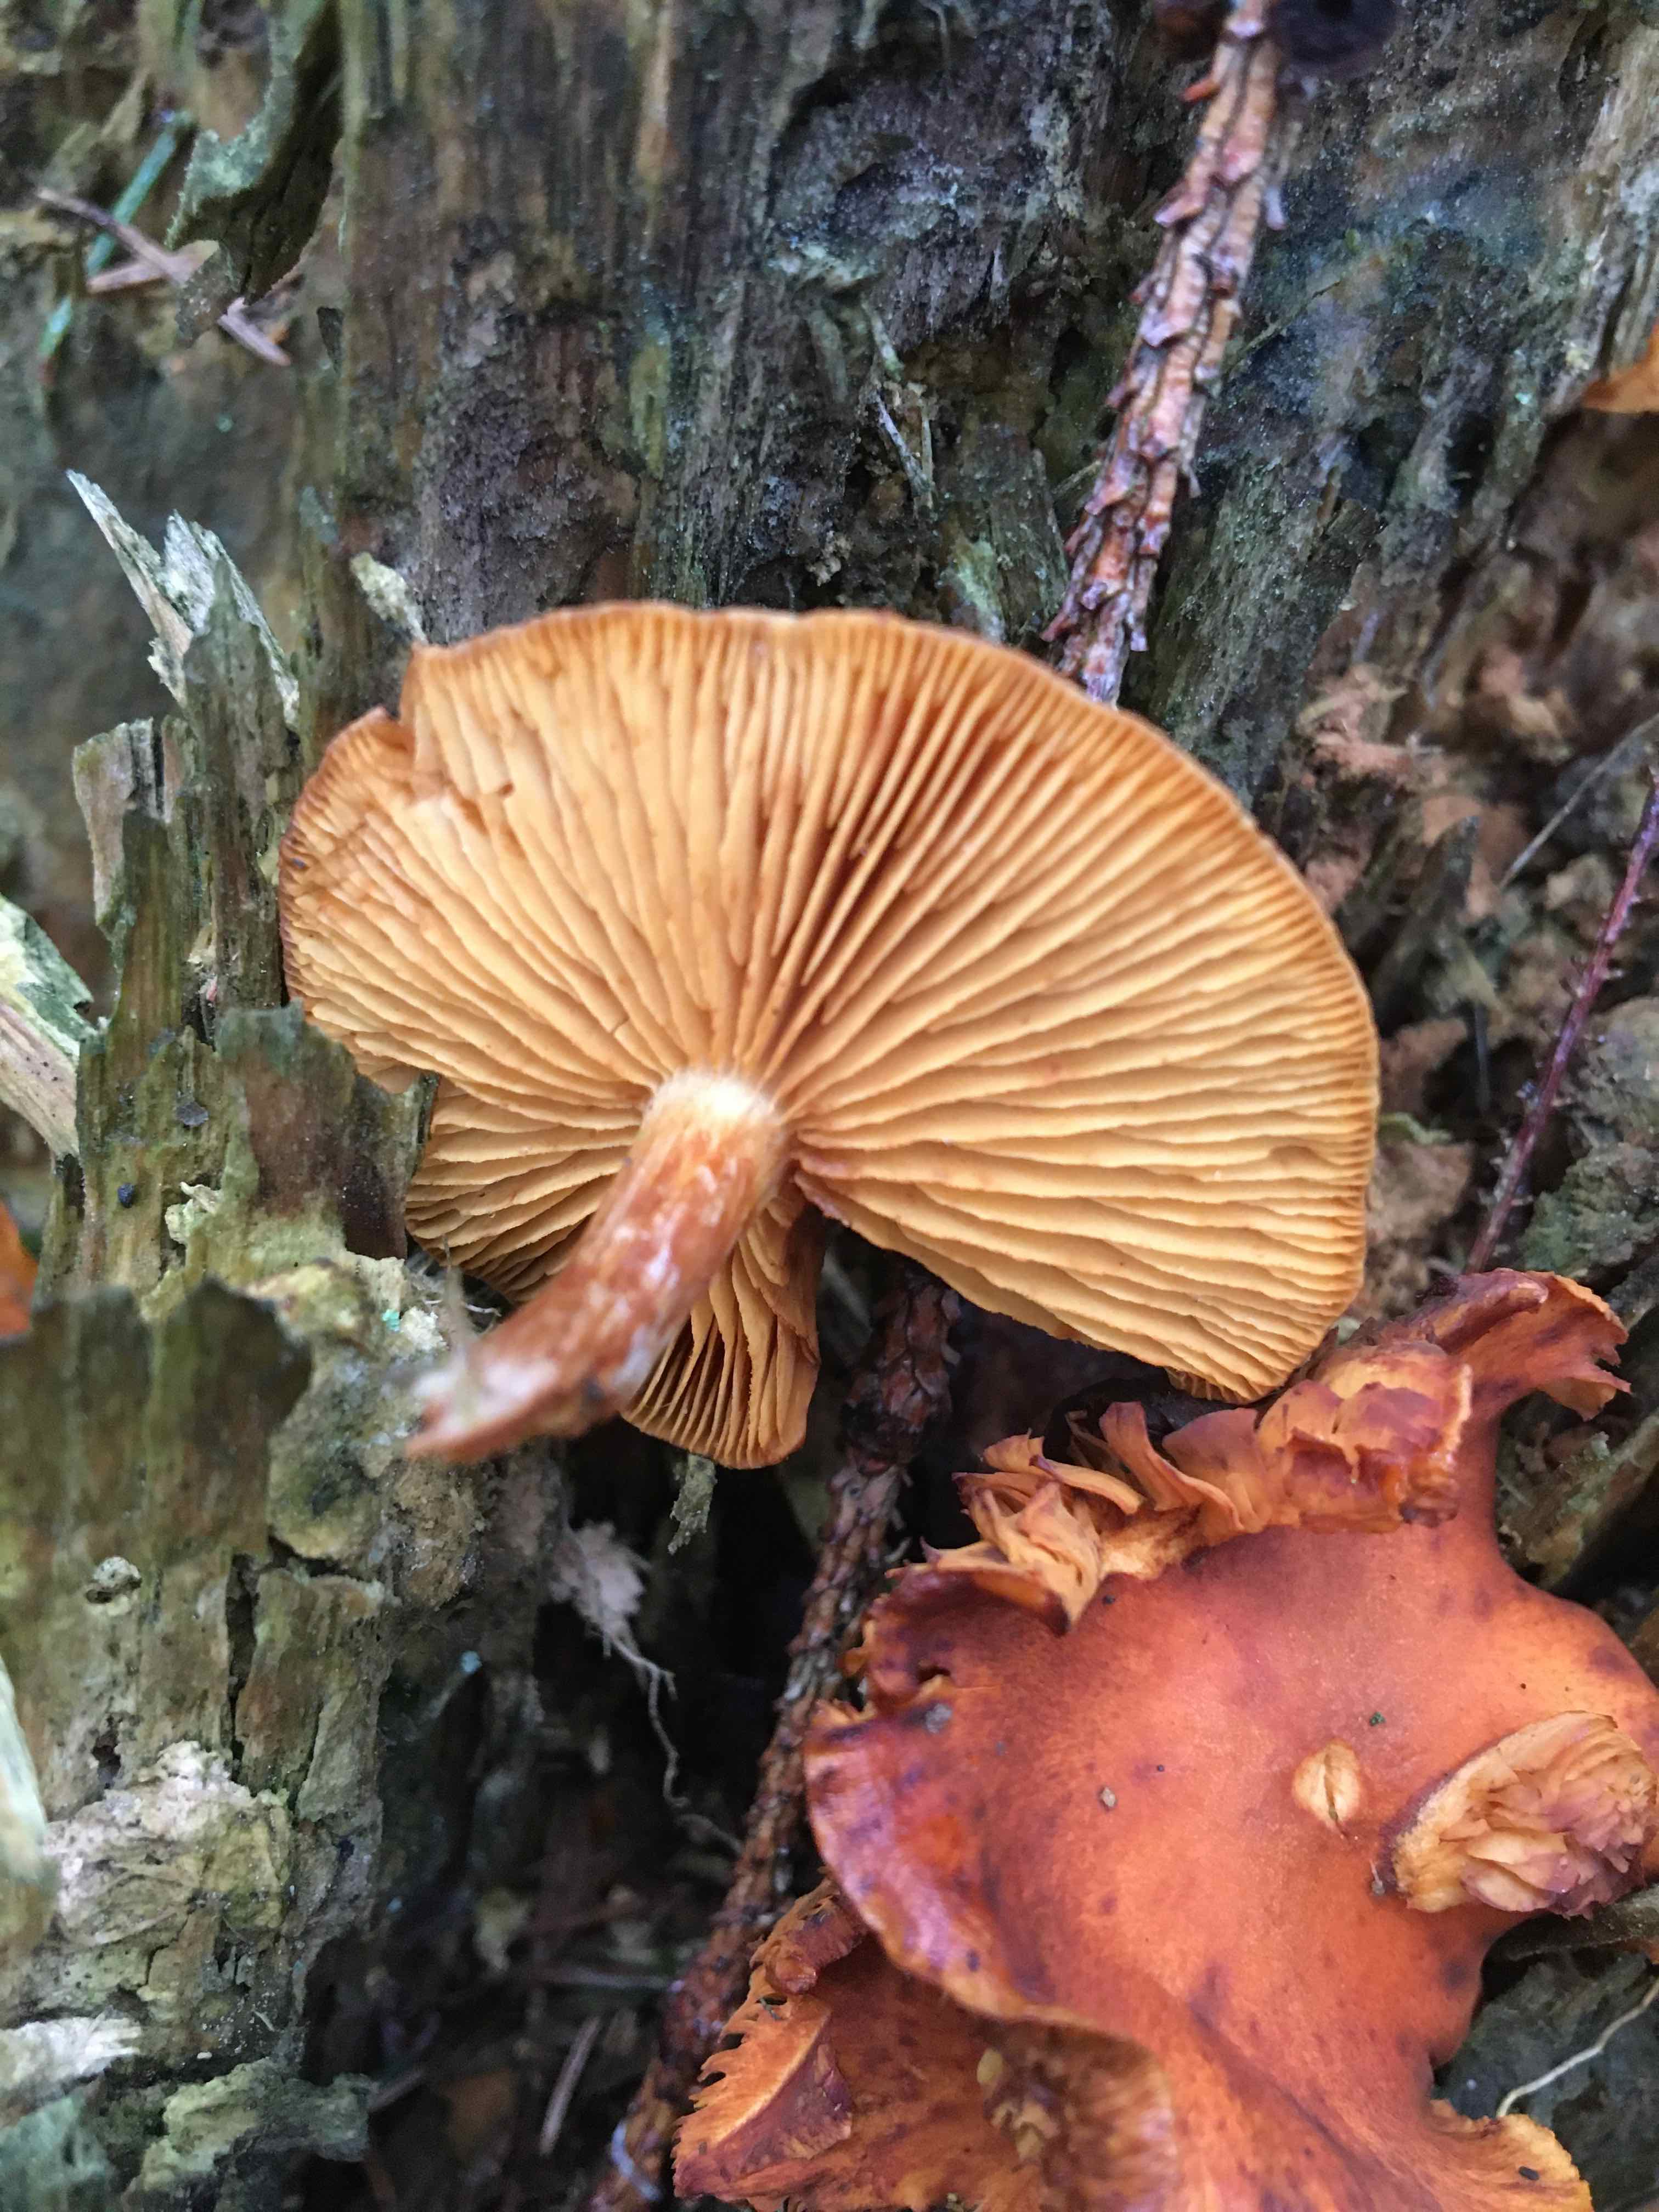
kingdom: Fungi
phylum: Basidiomycota
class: Agaricomycetes
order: Agaricales
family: Hymenogastraceae
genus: Gymnopilus
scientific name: Gymnopilus
